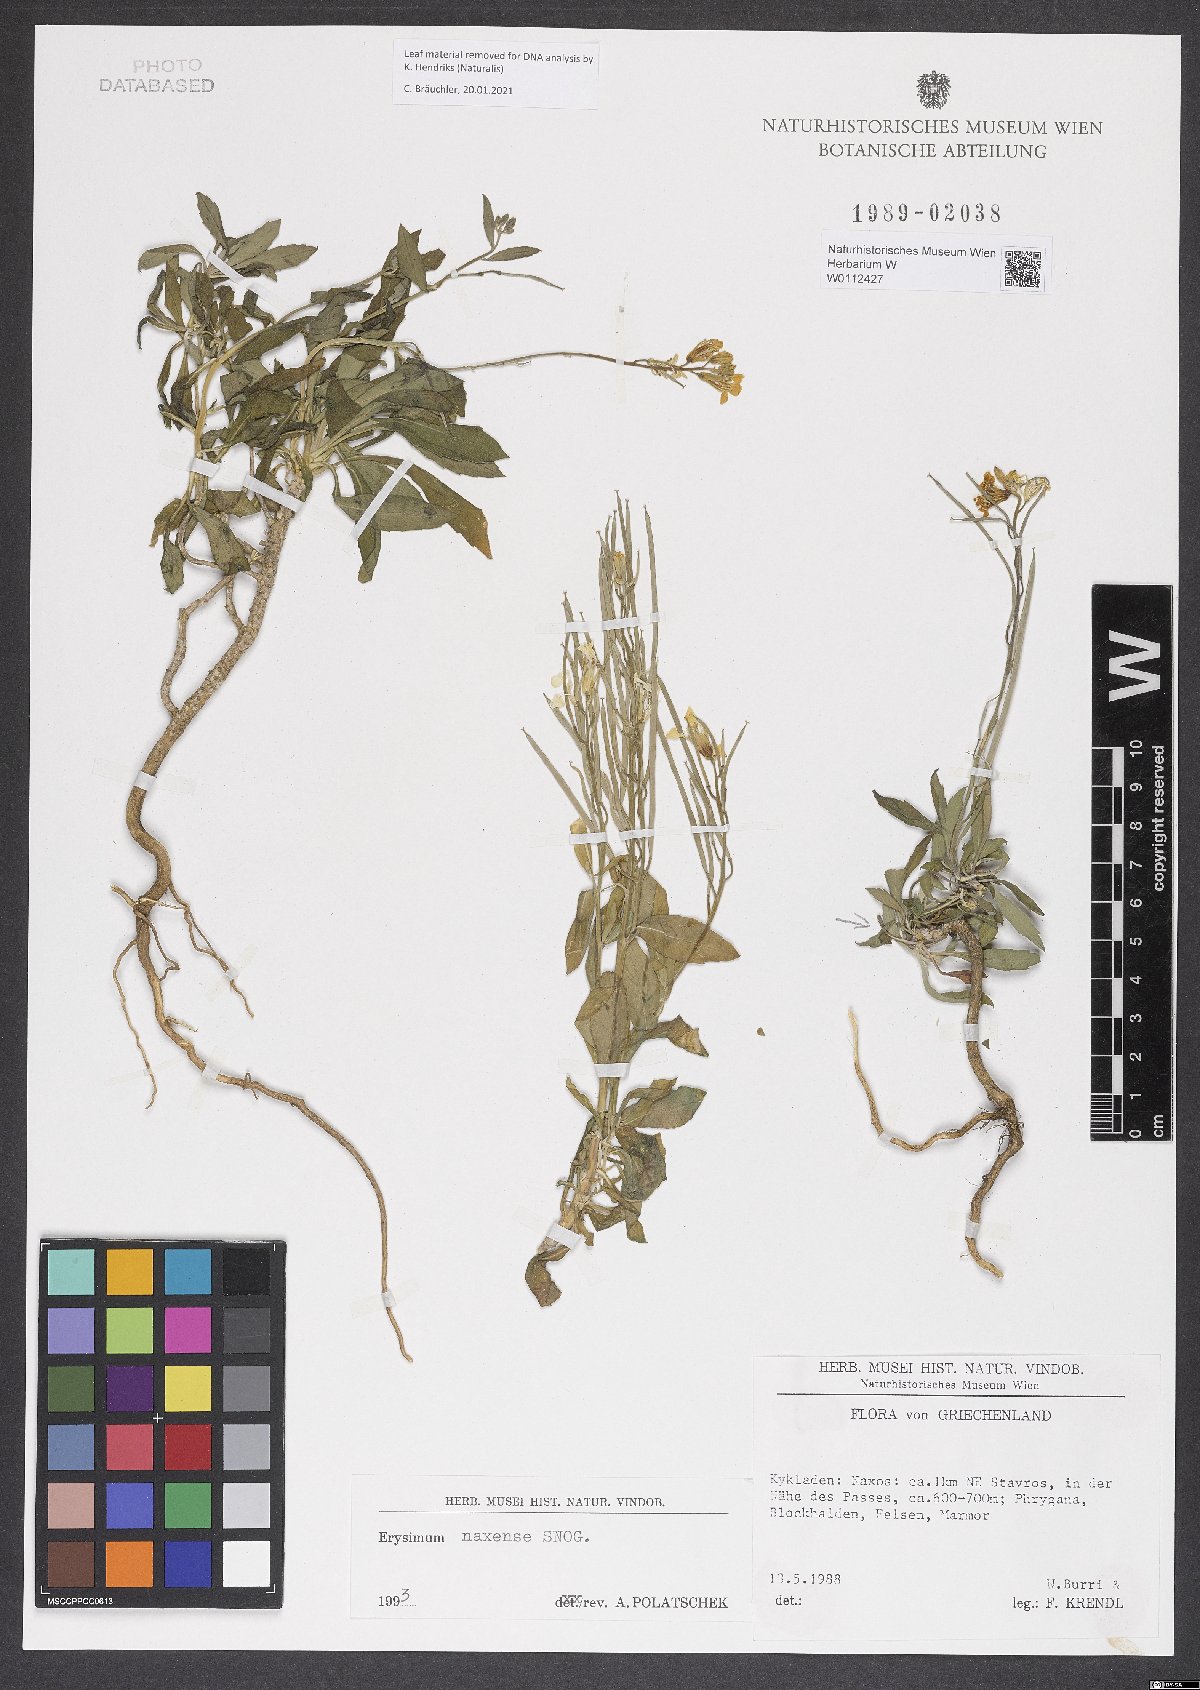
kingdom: Plantae
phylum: Tracheophyta
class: Magnoliopsida
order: Brassicales
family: Brassicaceae
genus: Erysimum
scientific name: Erysimum naxense
